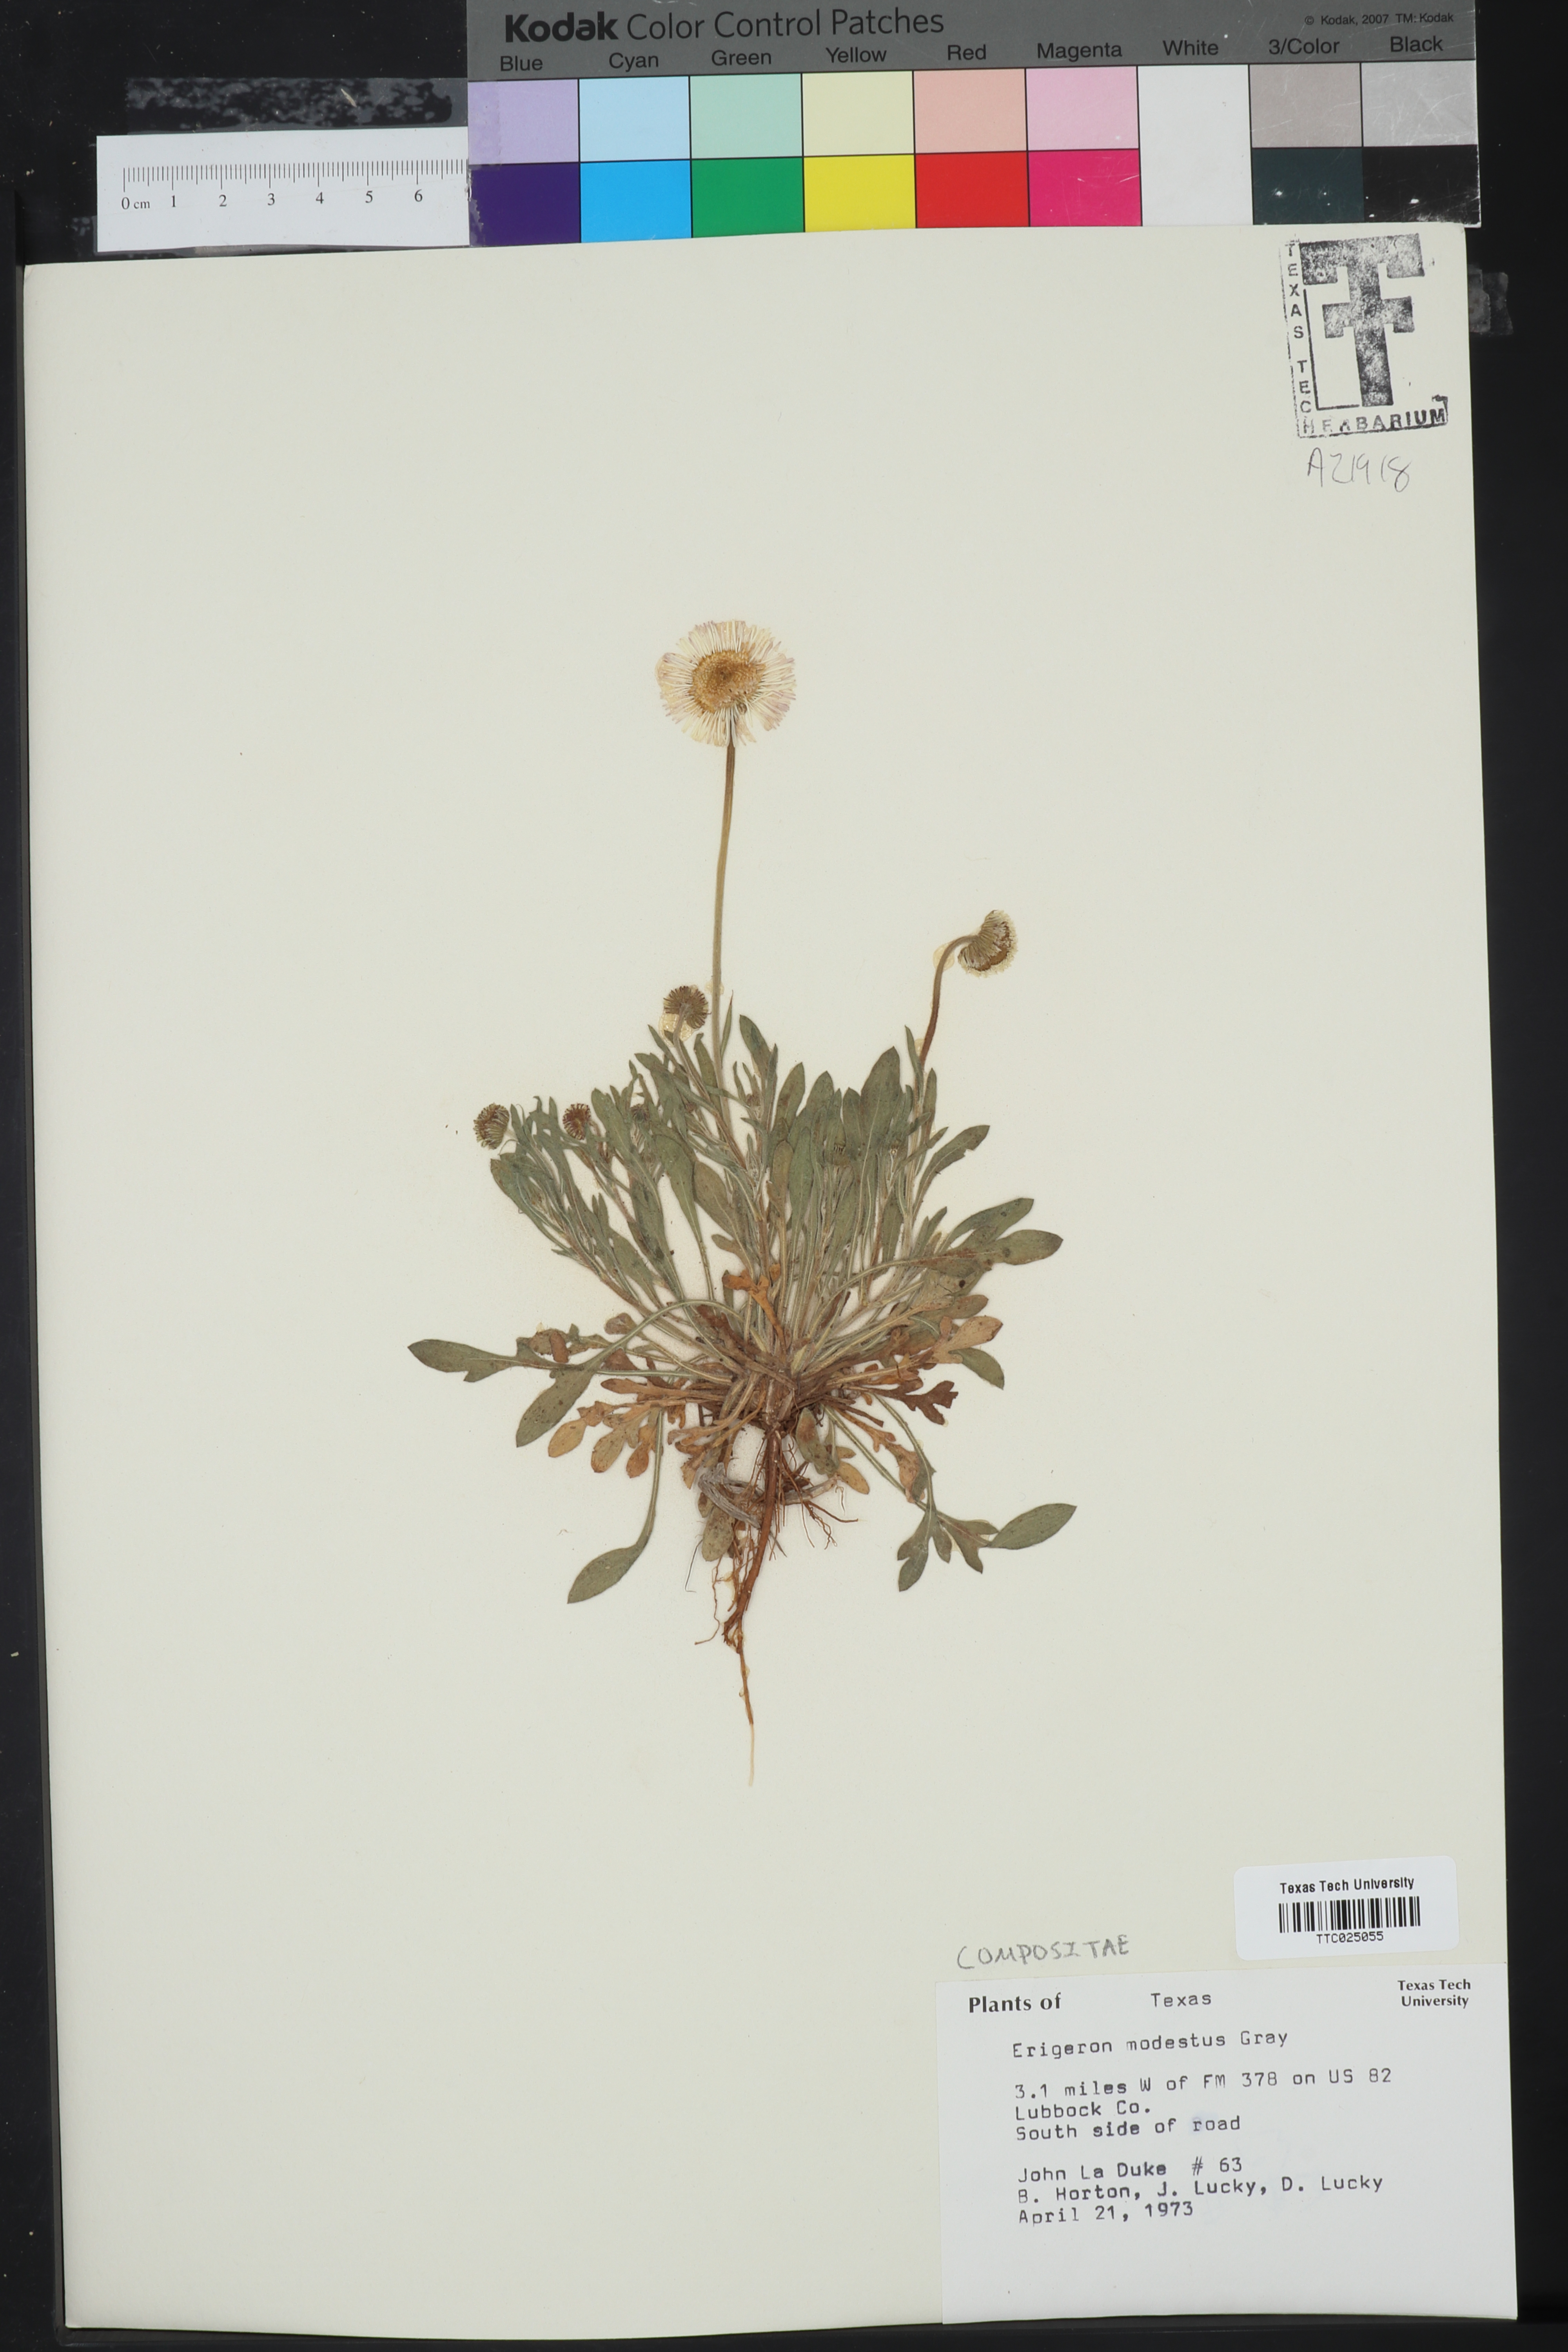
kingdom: Plantae
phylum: Tracheophyta
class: Magnoliopsida
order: Asterales
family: Asteraceae
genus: Erigeron
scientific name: Erigeron modestus
